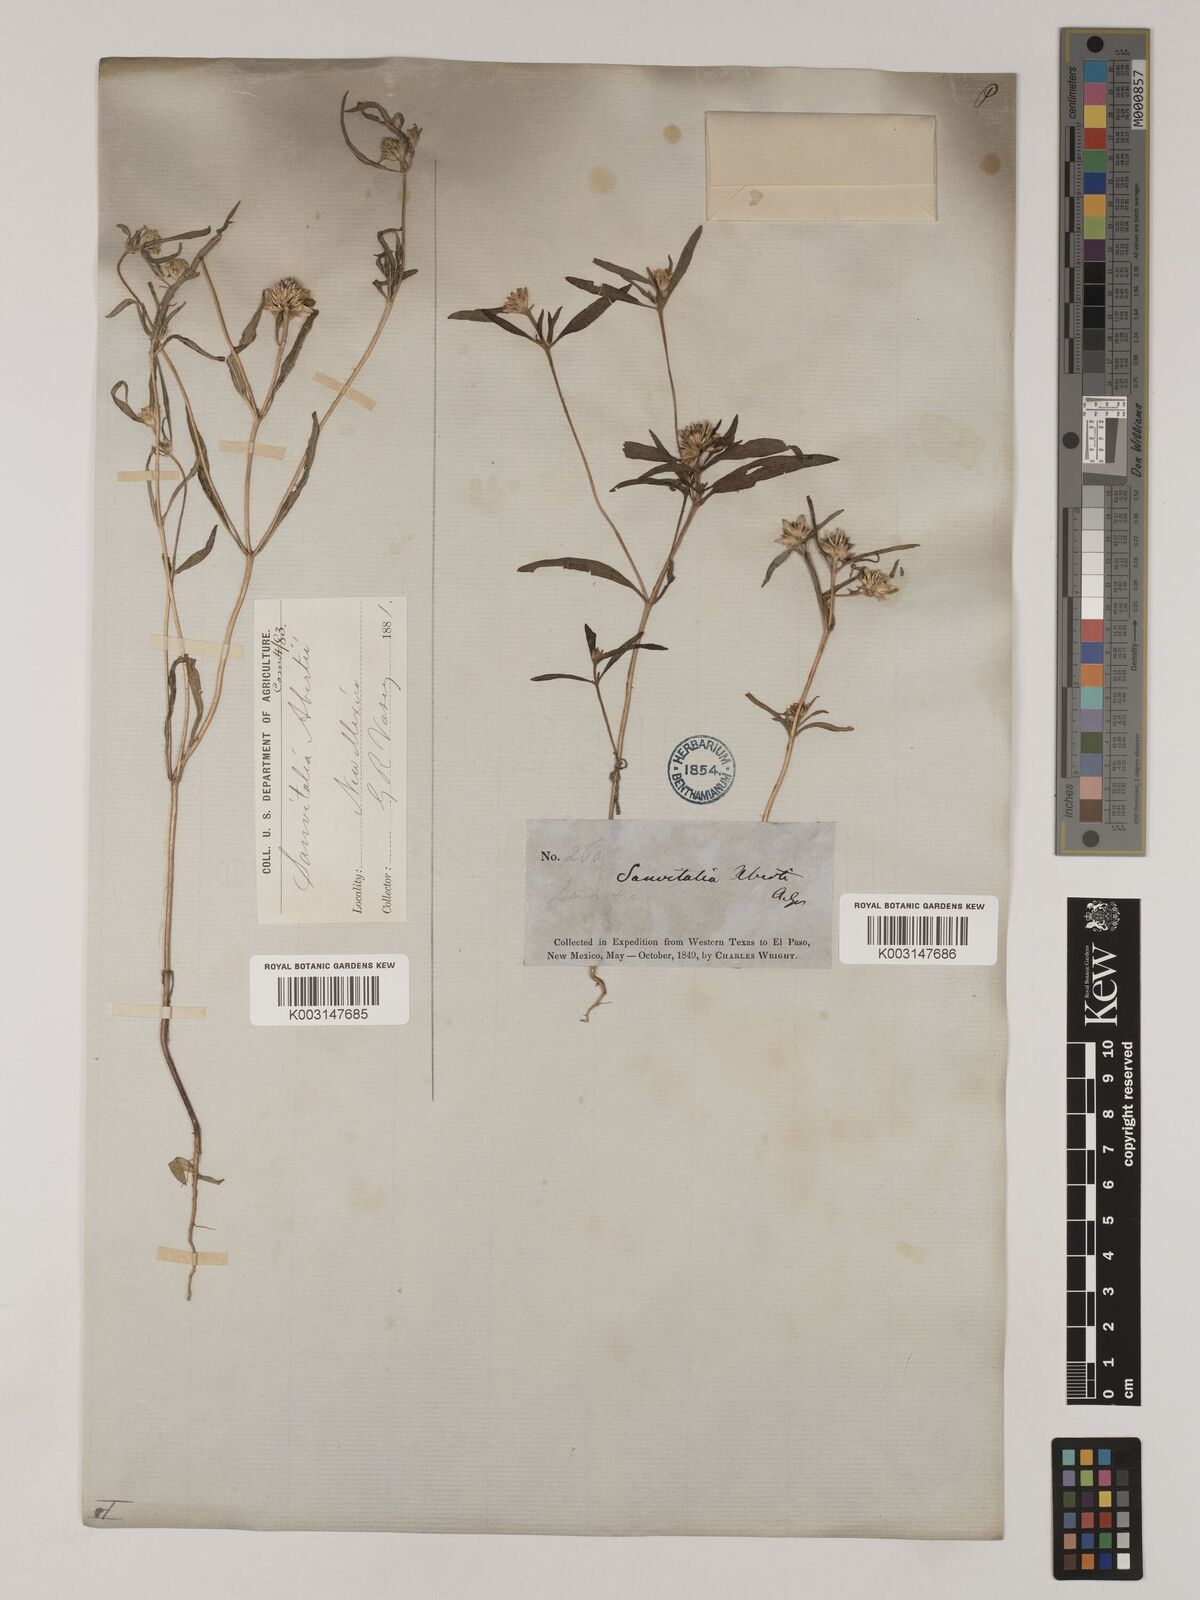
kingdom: Plantae
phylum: Tracheophyta
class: Magnoliopsida
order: Asterales
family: Asteraceae
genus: Sanvitalia
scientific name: Sanvitalia abertii
